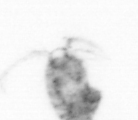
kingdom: Animalia
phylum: Arthropoda
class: Copepoda
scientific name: Copepoda
